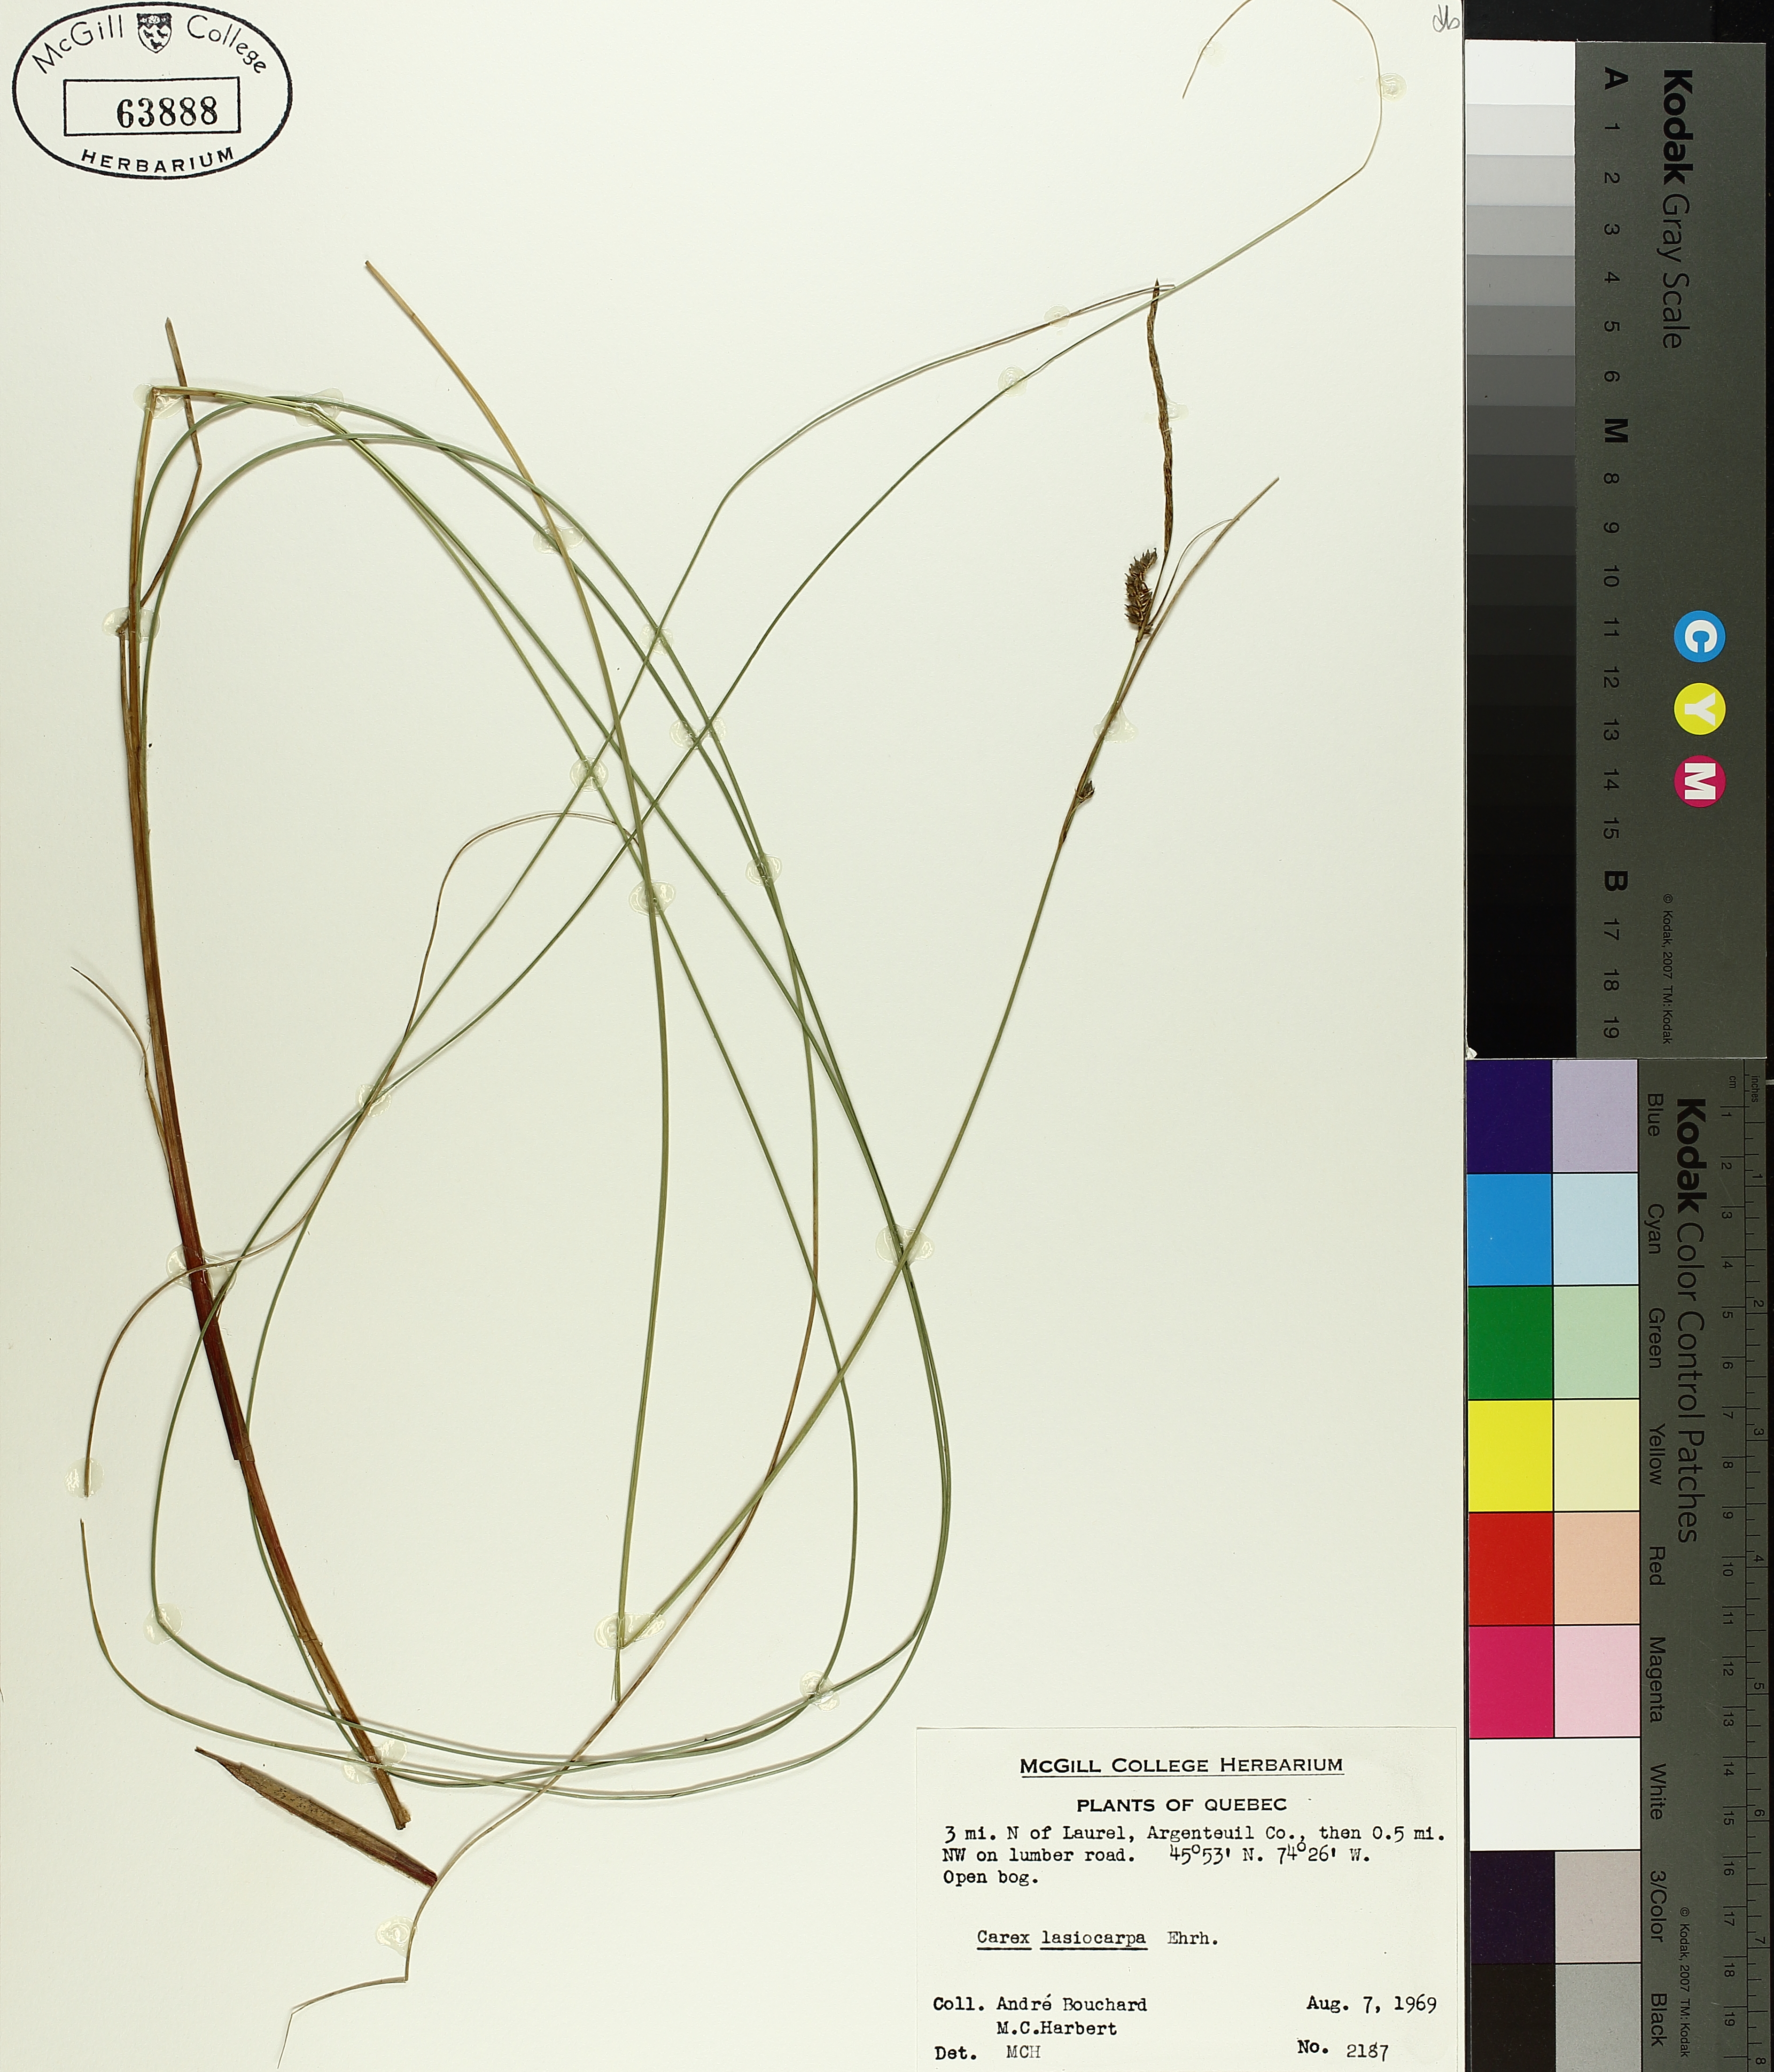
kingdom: Plantae
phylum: Tracheophyta
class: Liliopsida
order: Poales
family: Cyperaceae
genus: Carex
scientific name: Carex lasiocarpa
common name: Slender sedge
